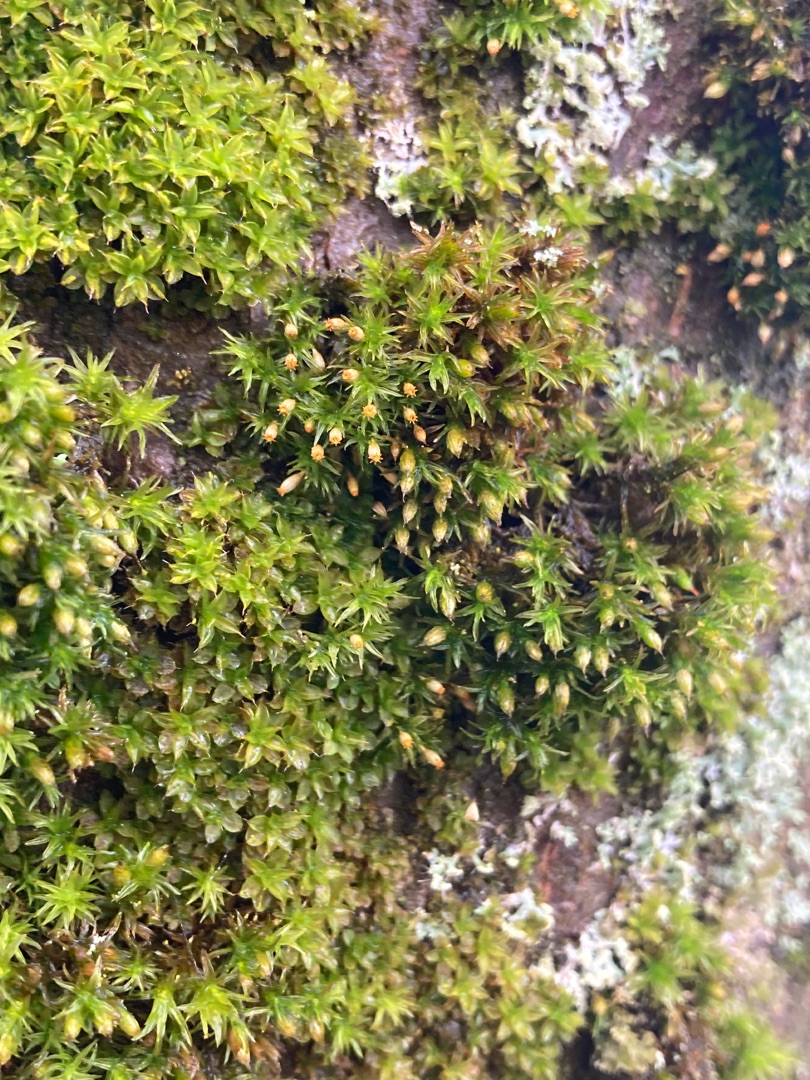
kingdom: Plantae
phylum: Bryophyta
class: Bryopsida
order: Orthotrichales
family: Orthotrichaceae
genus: Orthotrichum
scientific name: Orthotrichum pulchellum
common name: Smuk furehætte
